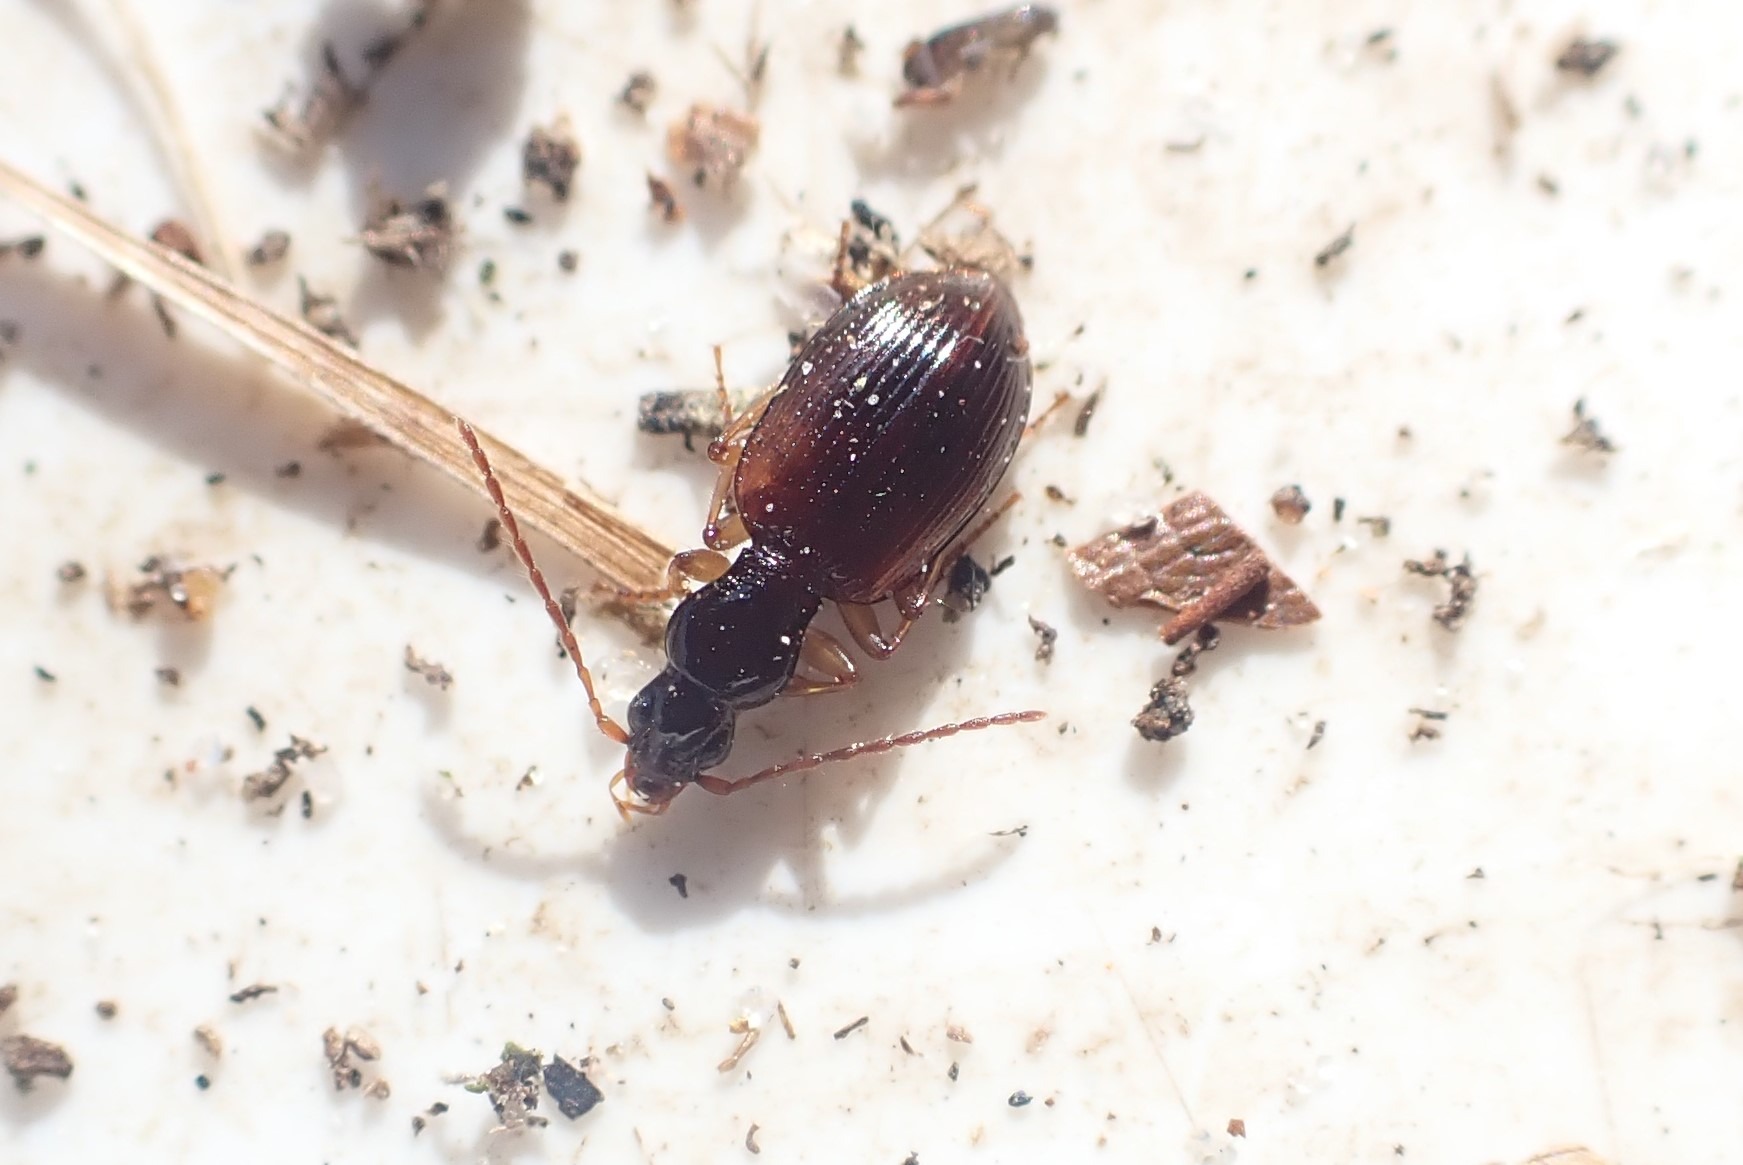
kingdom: Animalia
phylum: Arthropoda
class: Insecta
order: Coleoptera
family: Carabidae
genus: Oxypselaphus
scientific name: Oxypselaphus obscurus
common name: Rødbrun kvikløber
